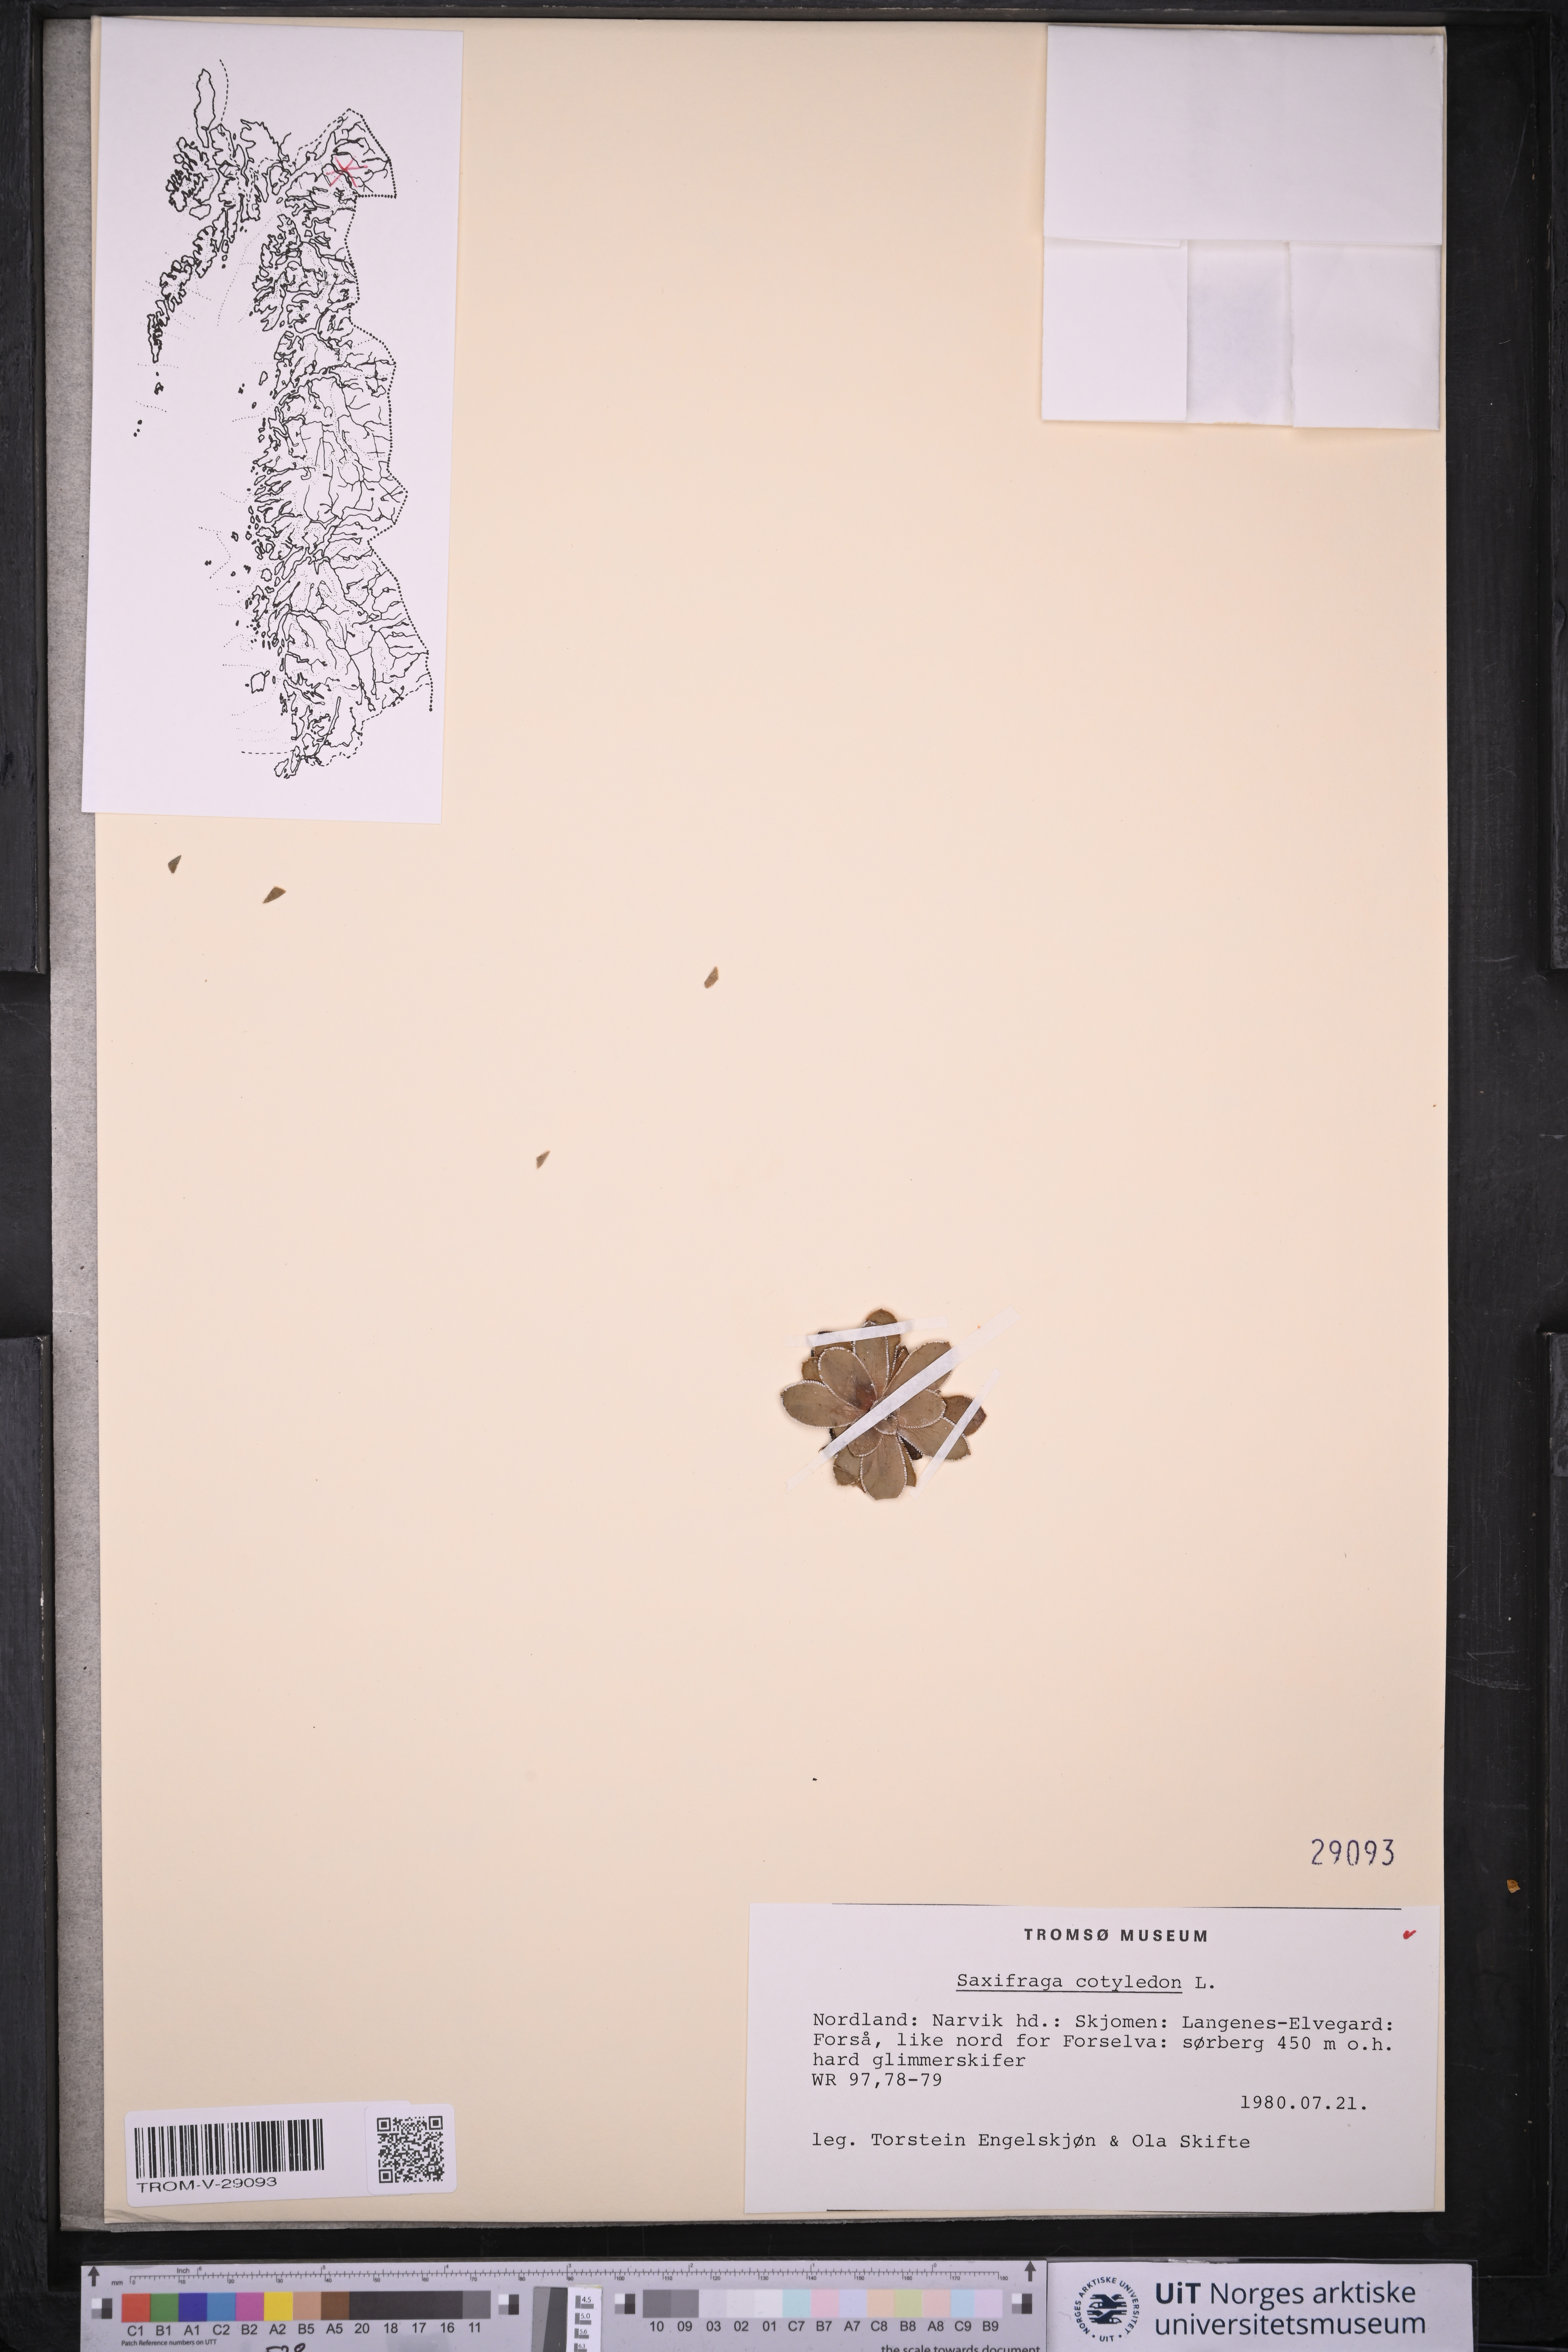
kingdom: Plantae
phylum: Tracheophyta
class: Magnoliopsida
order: Saxifragales
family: Saxifragaceae
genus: Saxifraga
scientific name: Saxifraga cotyledon
